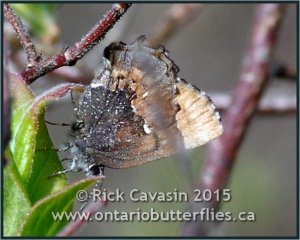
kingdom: Animalia
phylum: Arthropoda
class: Insecta
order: Lepidoptera
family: Lycaenidae
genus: Incisalia
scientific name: Incisalia henrici
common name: Henry's Elfin
